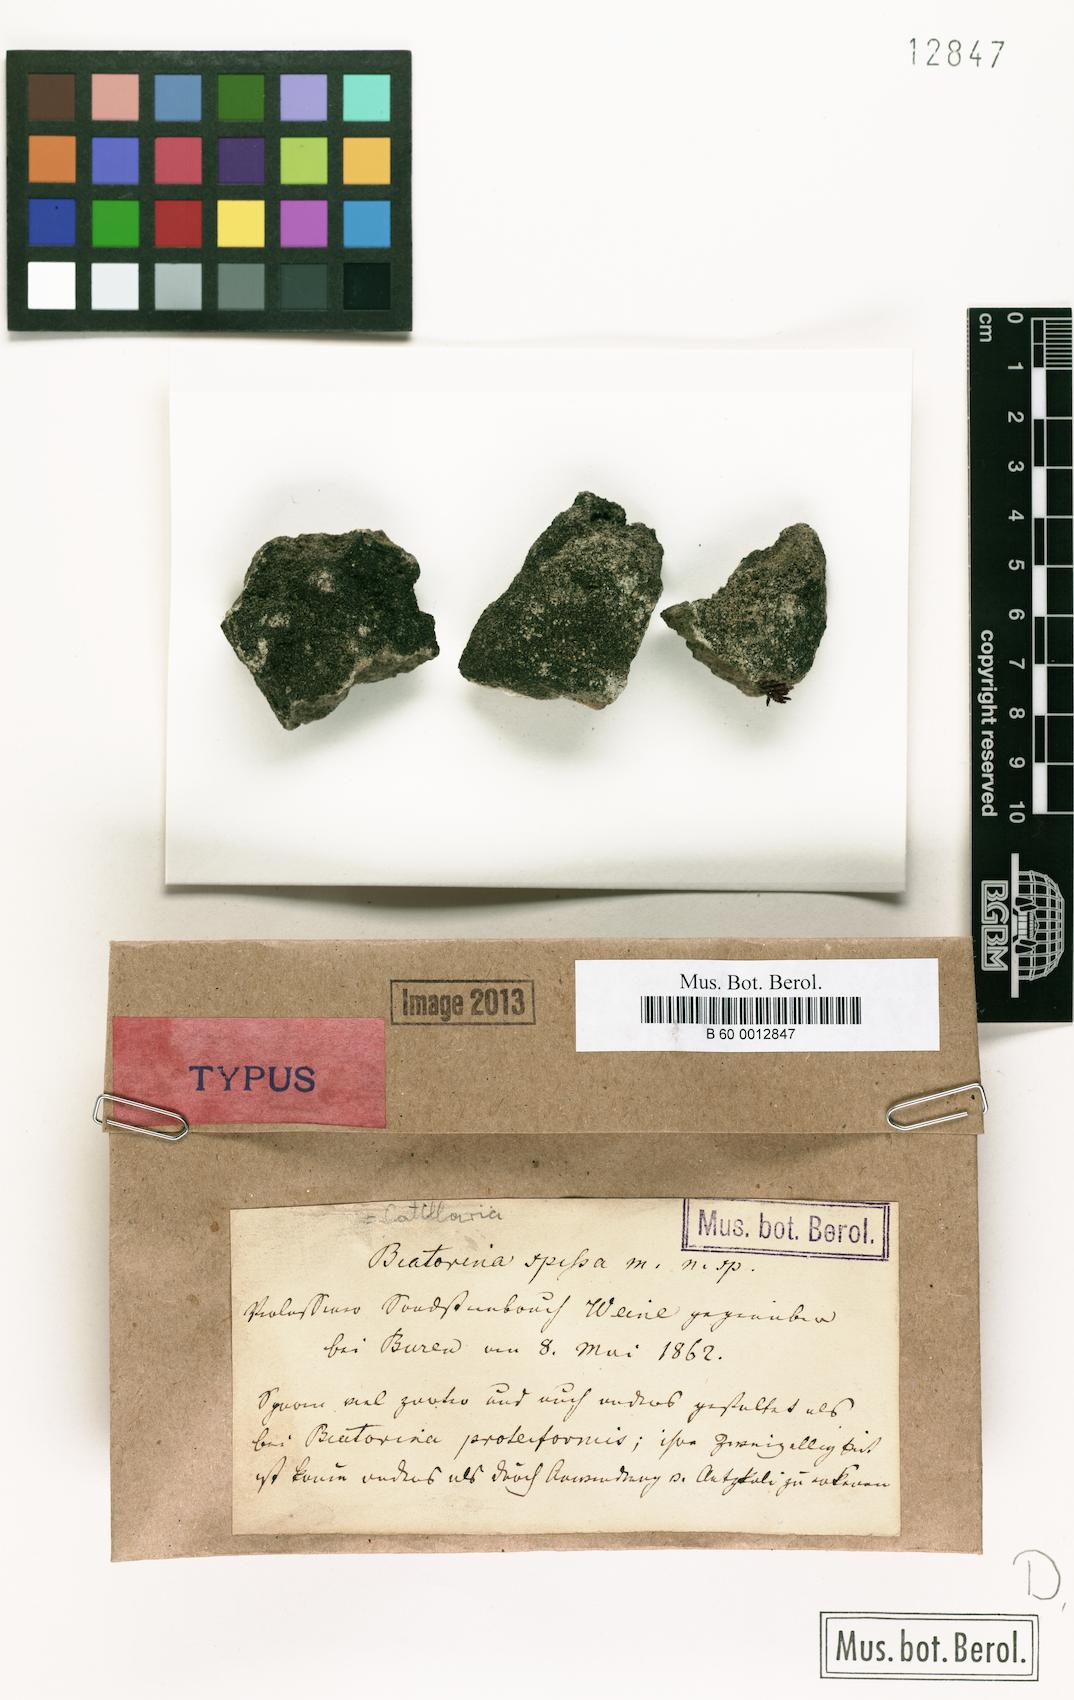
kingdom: Fungi
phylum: Ascomycota
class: Lecanoromycetes
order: Lecanorales
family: Catillariaceae
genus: Catillaria
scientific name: Catillaria
